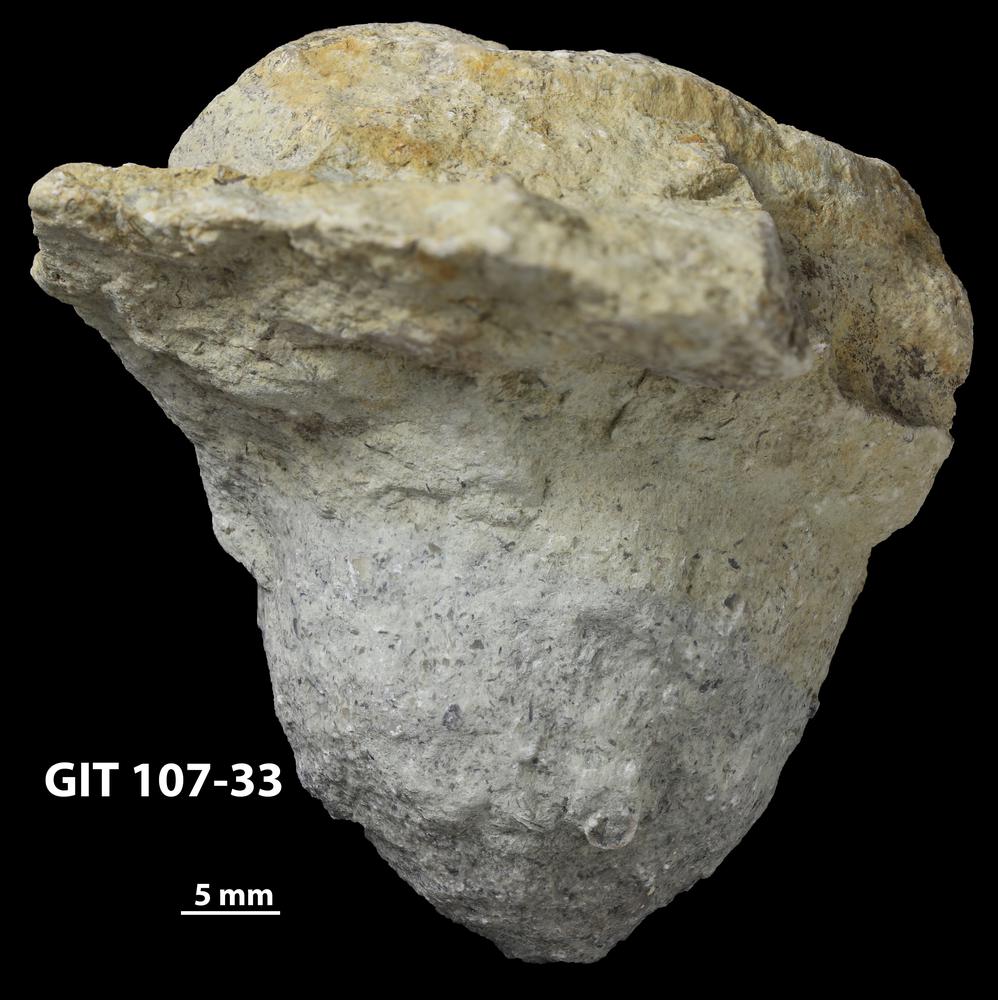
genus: Amphorichnus
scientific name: Amphorichnus
